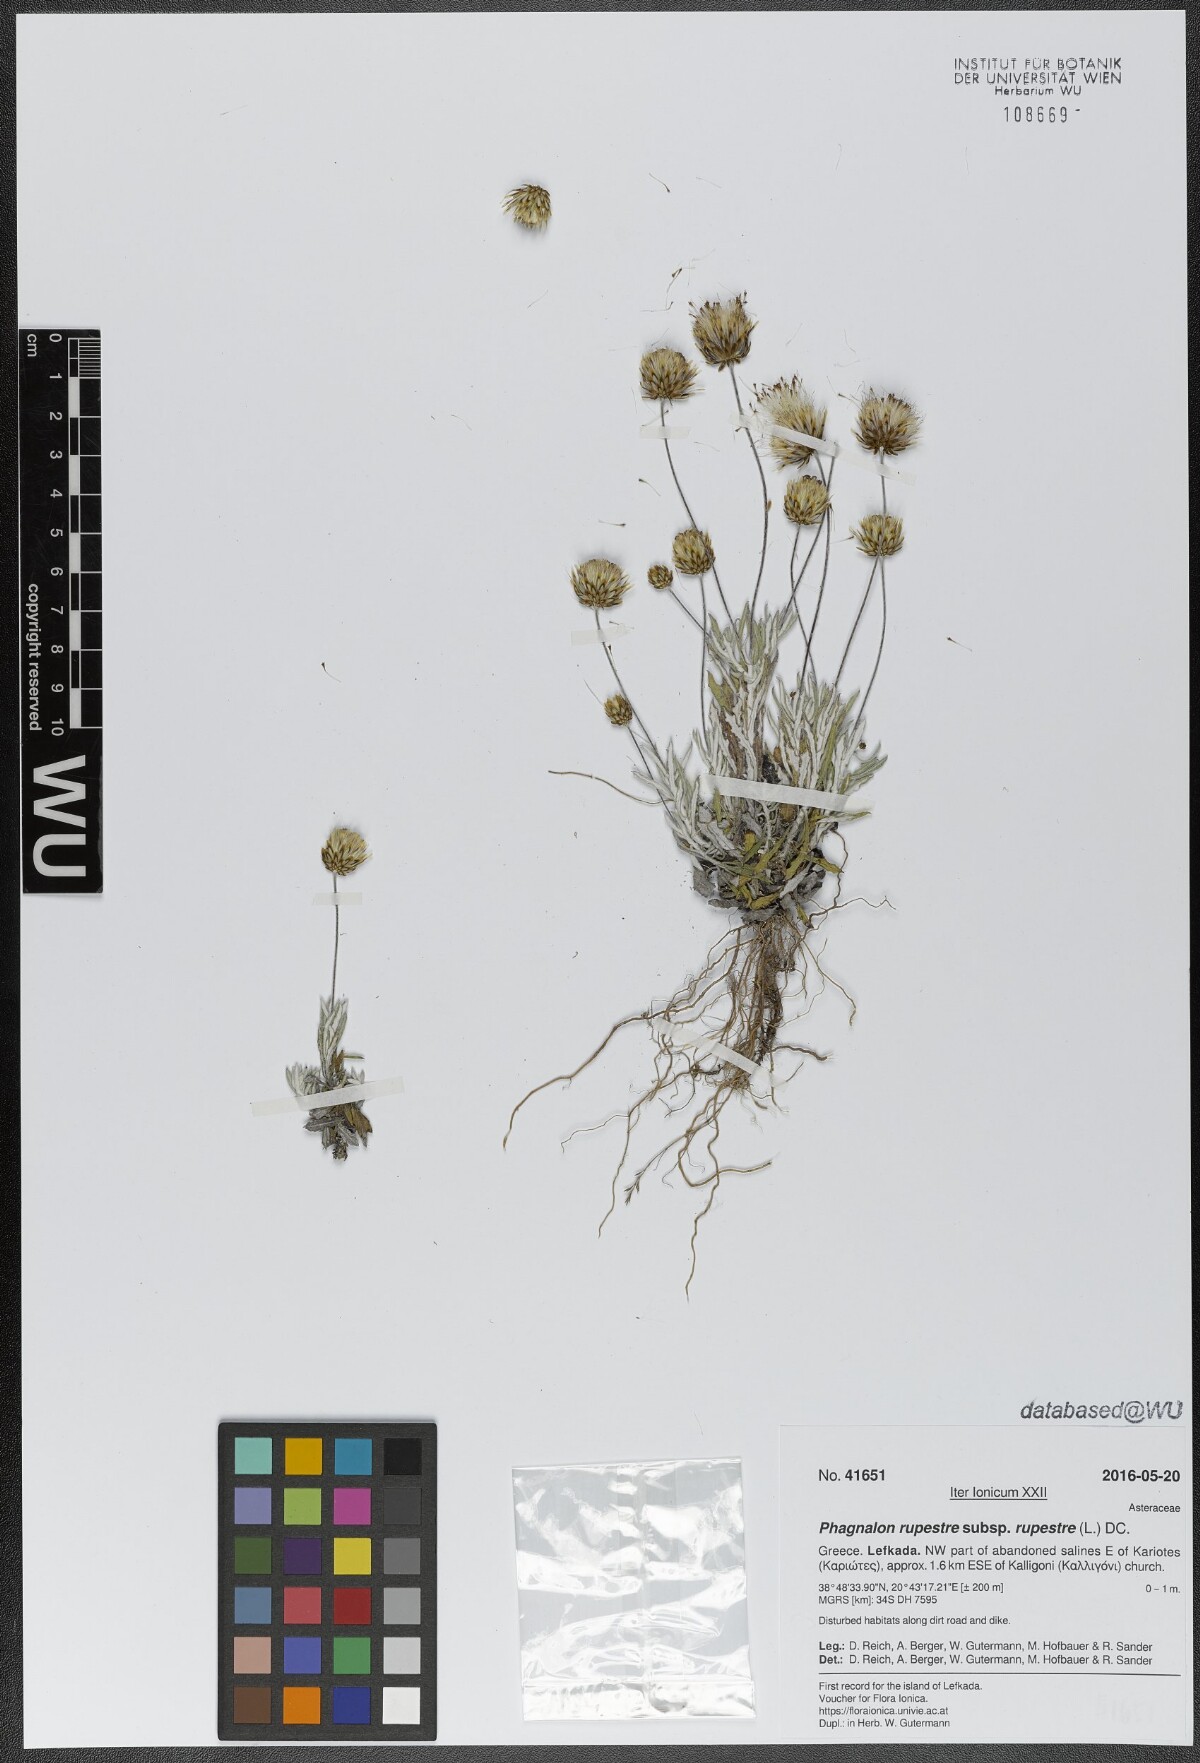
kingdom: Plantae
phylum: Tracheophyta
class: Magnoliopsida
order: Asterales
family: Asteraceae
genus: Phagnalon
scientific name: Phagnalon rupestre
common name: Rock phagnalon
